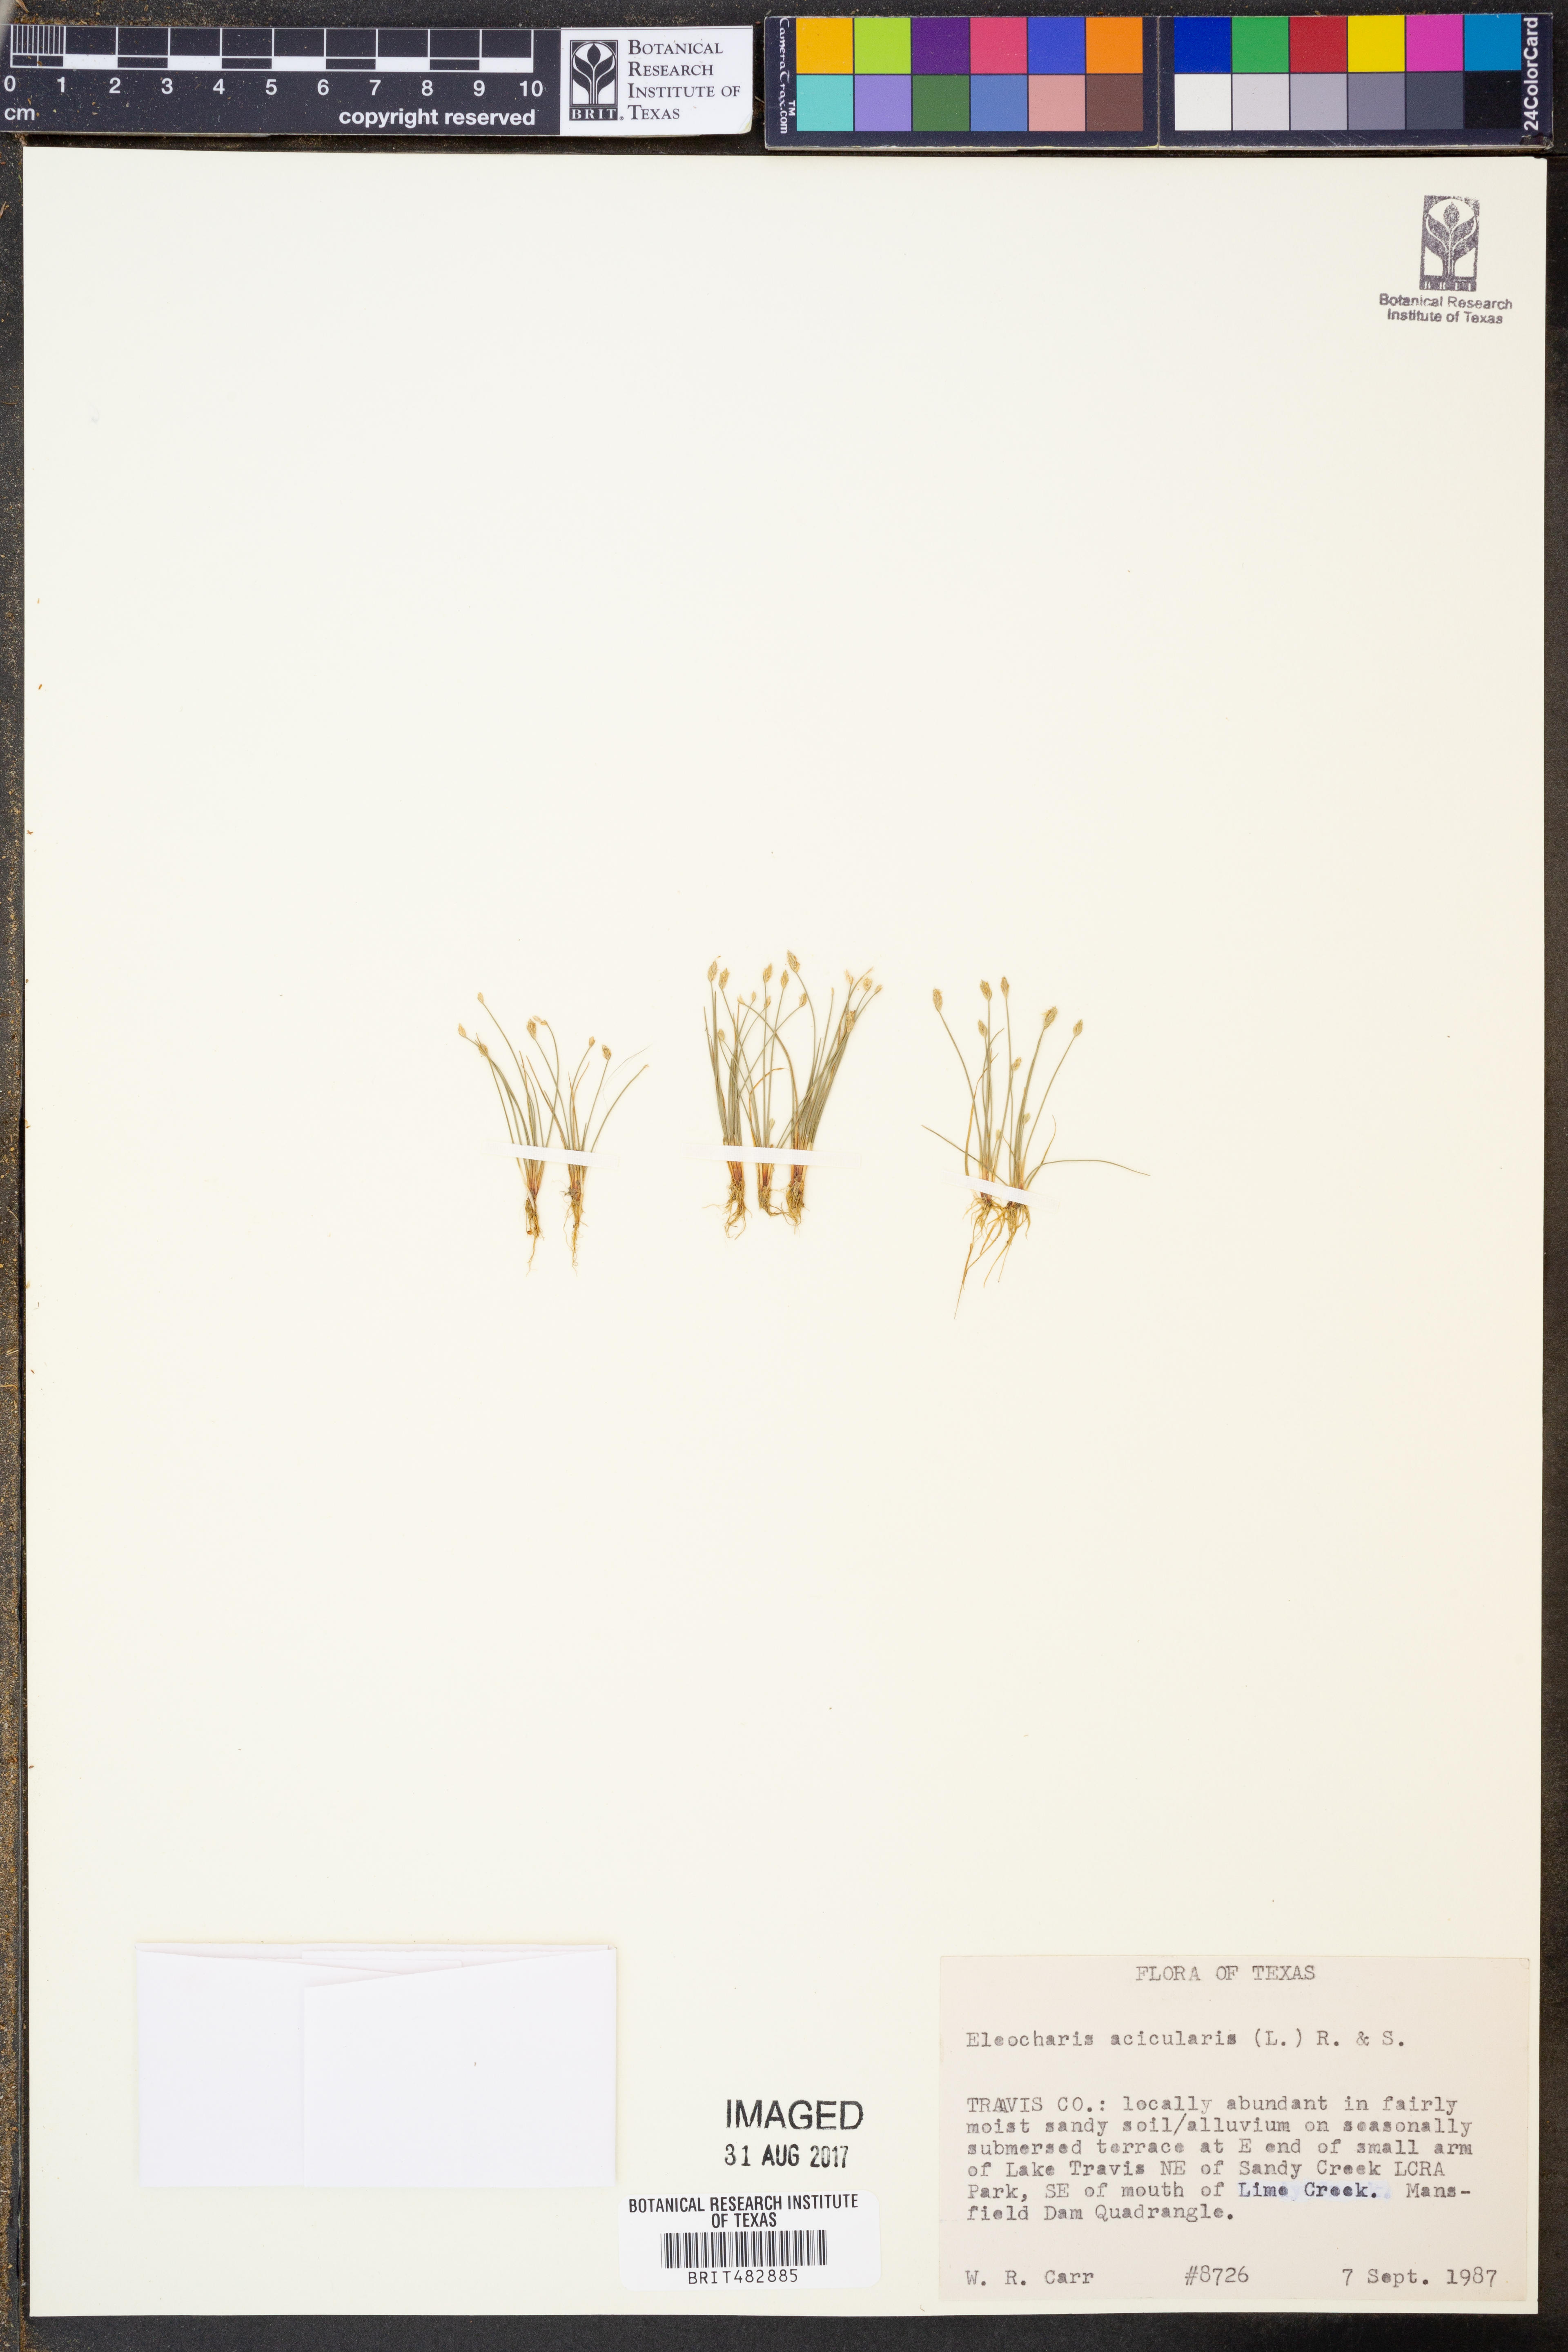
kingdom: Plantae
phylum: Tracheophyta
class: Liliopsida
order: Poales
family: Cyperaceae
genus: Eleocharis
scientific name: Eleocharis acicularis
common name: Needle spike-rush
